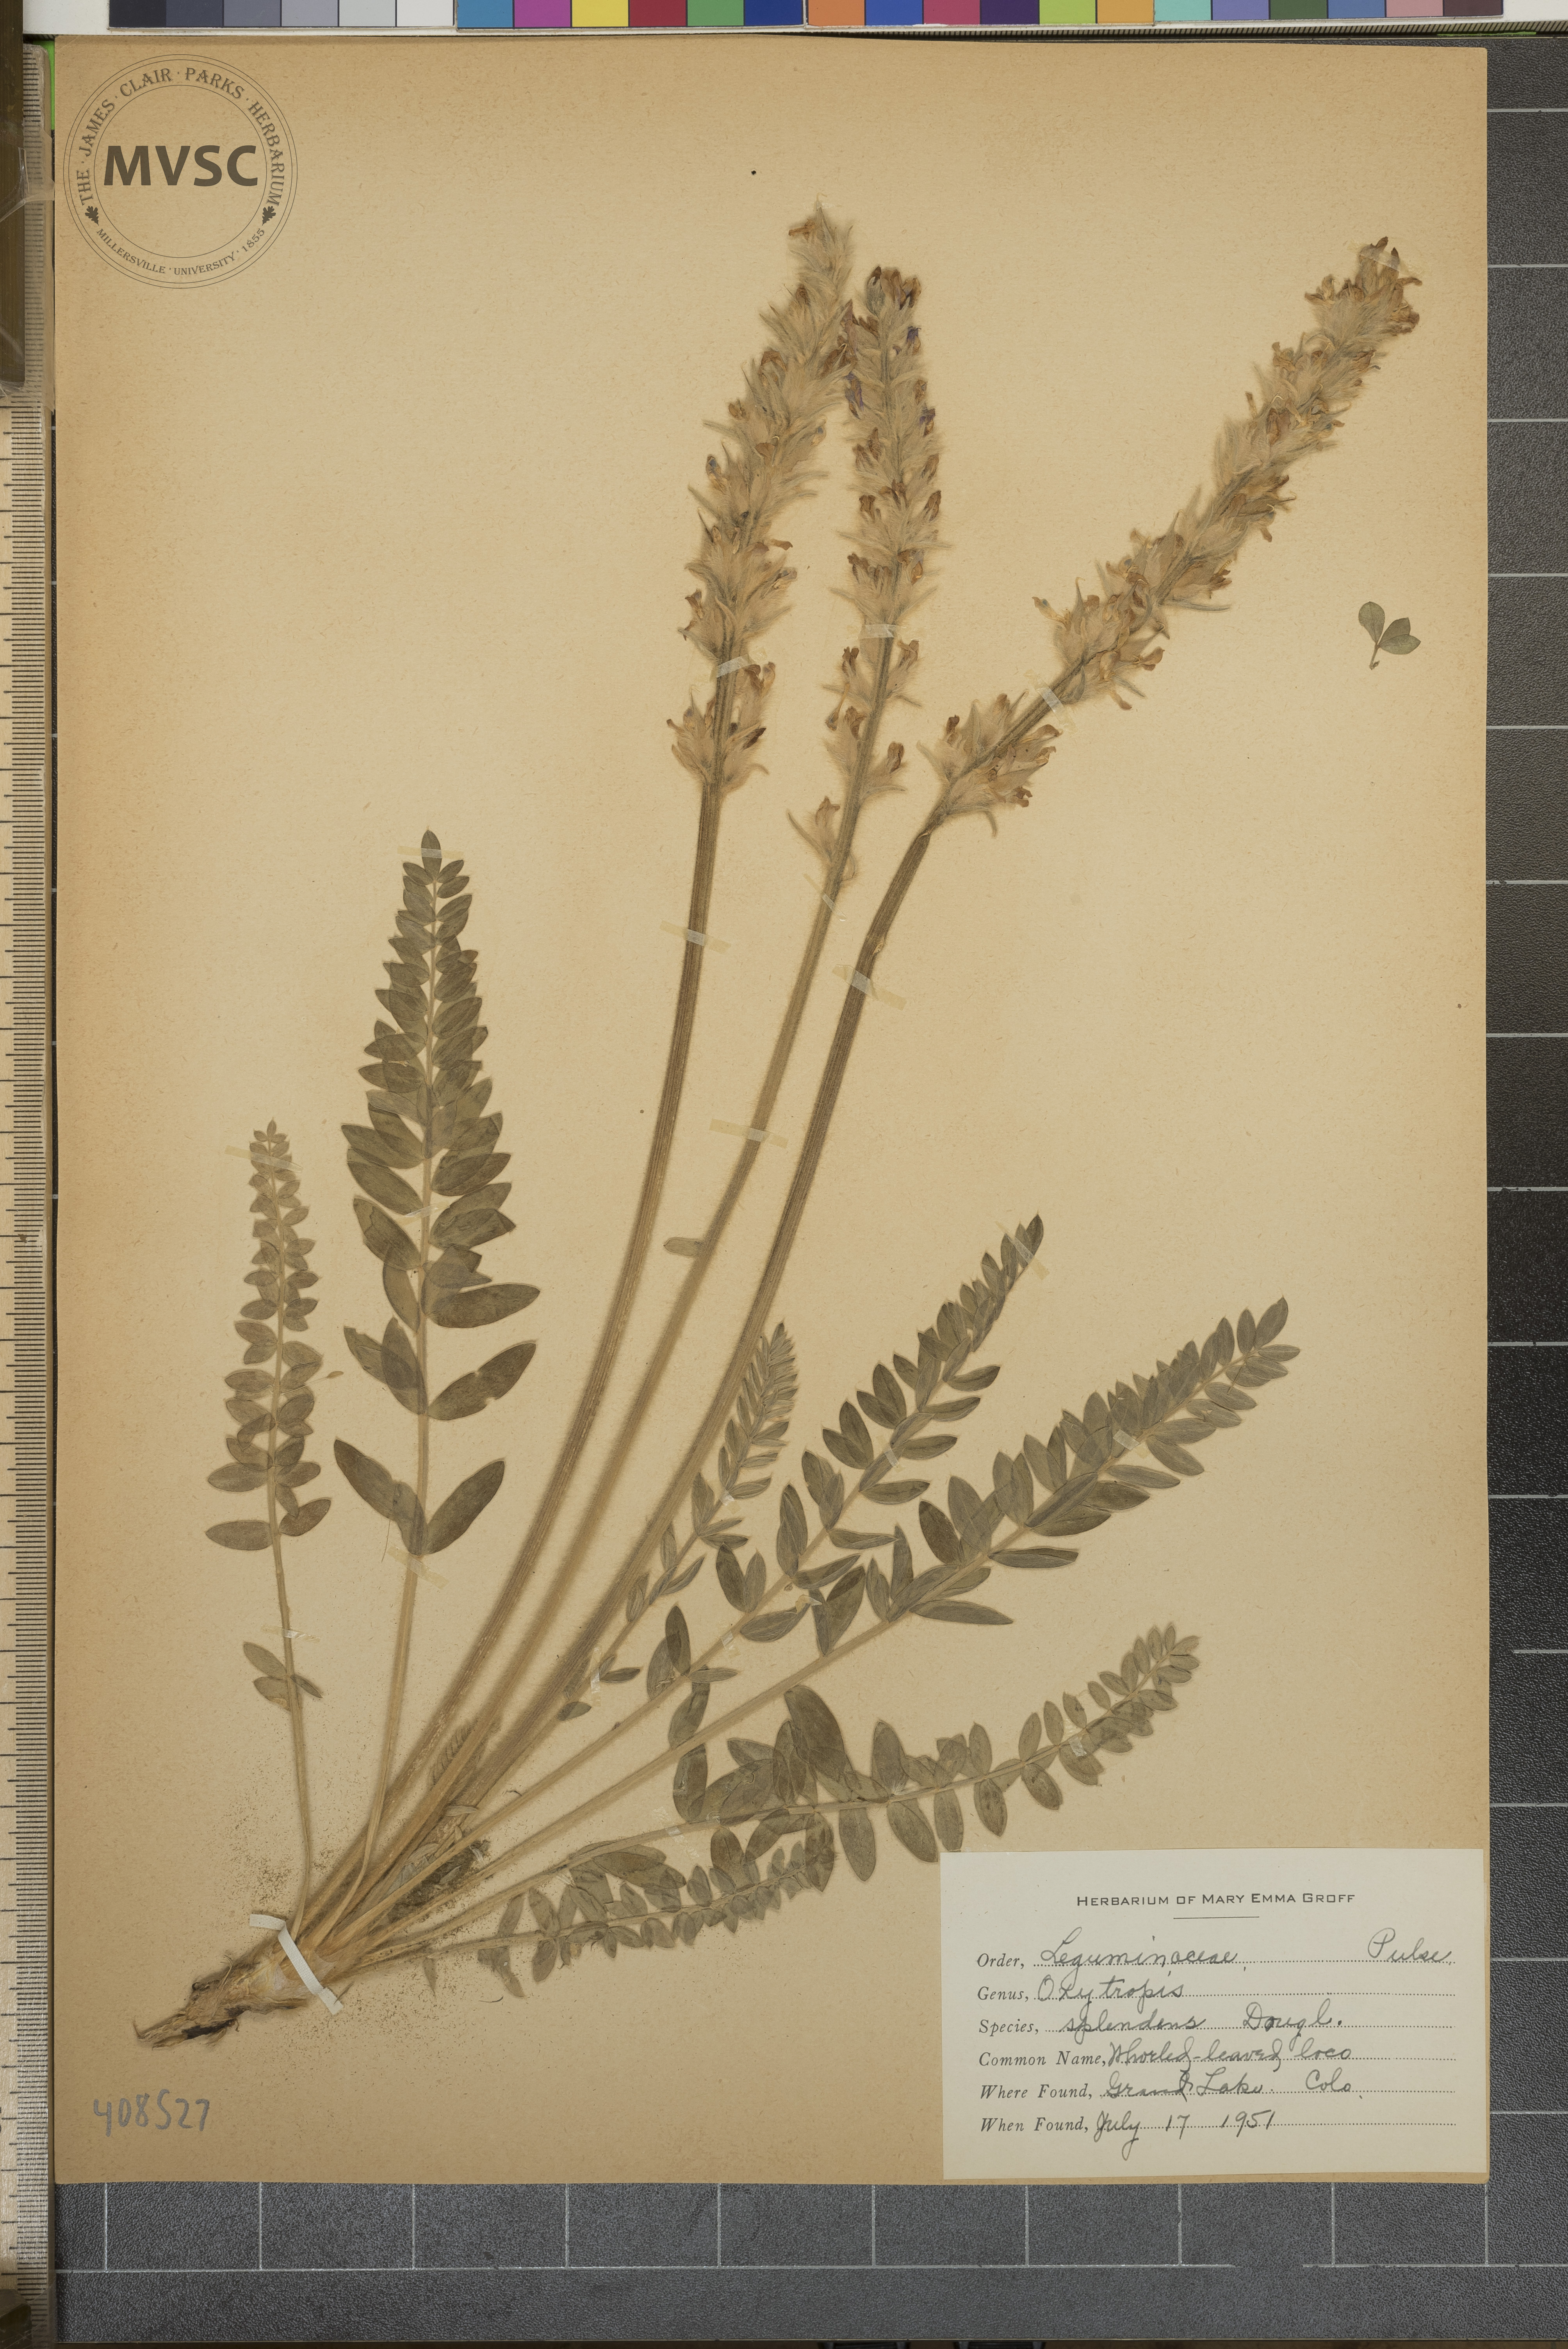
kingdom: Plantae
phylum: Tracheophyta
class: Magnoliopsida
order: Fabales
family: Fabaceae
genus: Oxytropis
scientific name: Oxytropis splendens
